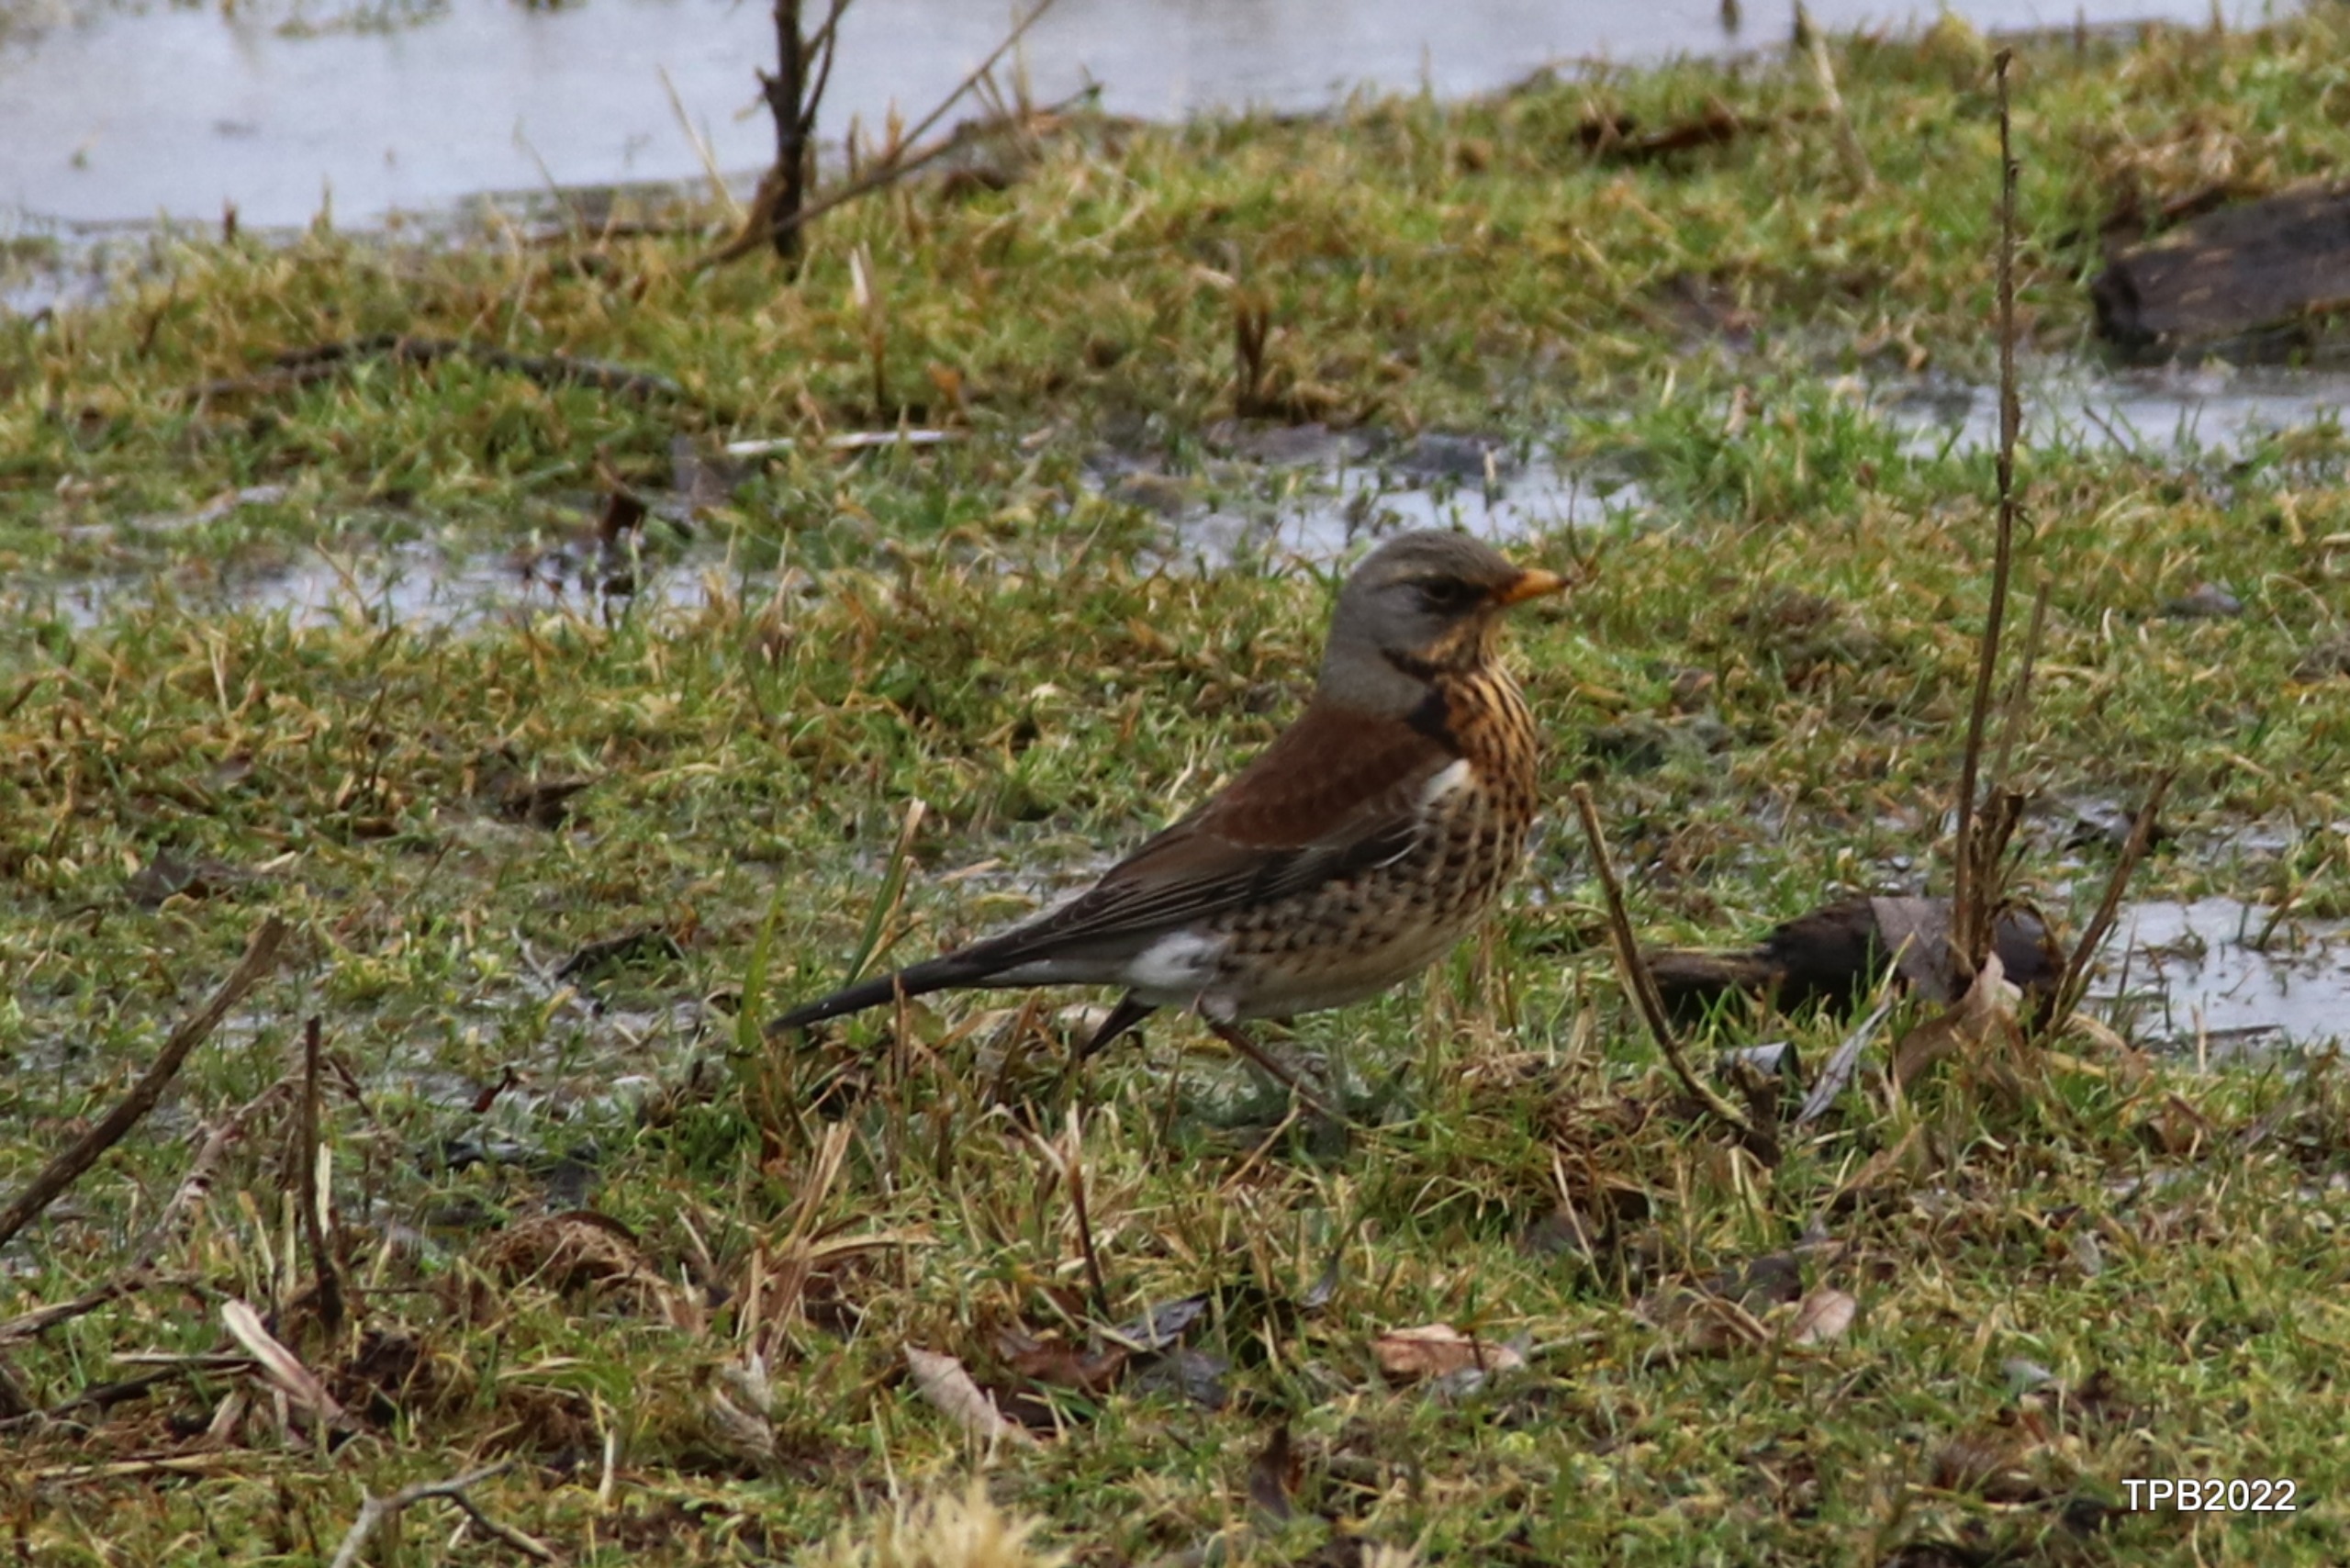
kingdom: Animalia
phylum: Chordata
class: Aves
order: Passeriformes
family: Turdidae
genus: Turdus
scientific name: Turdus pilaris
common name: Sjagger
